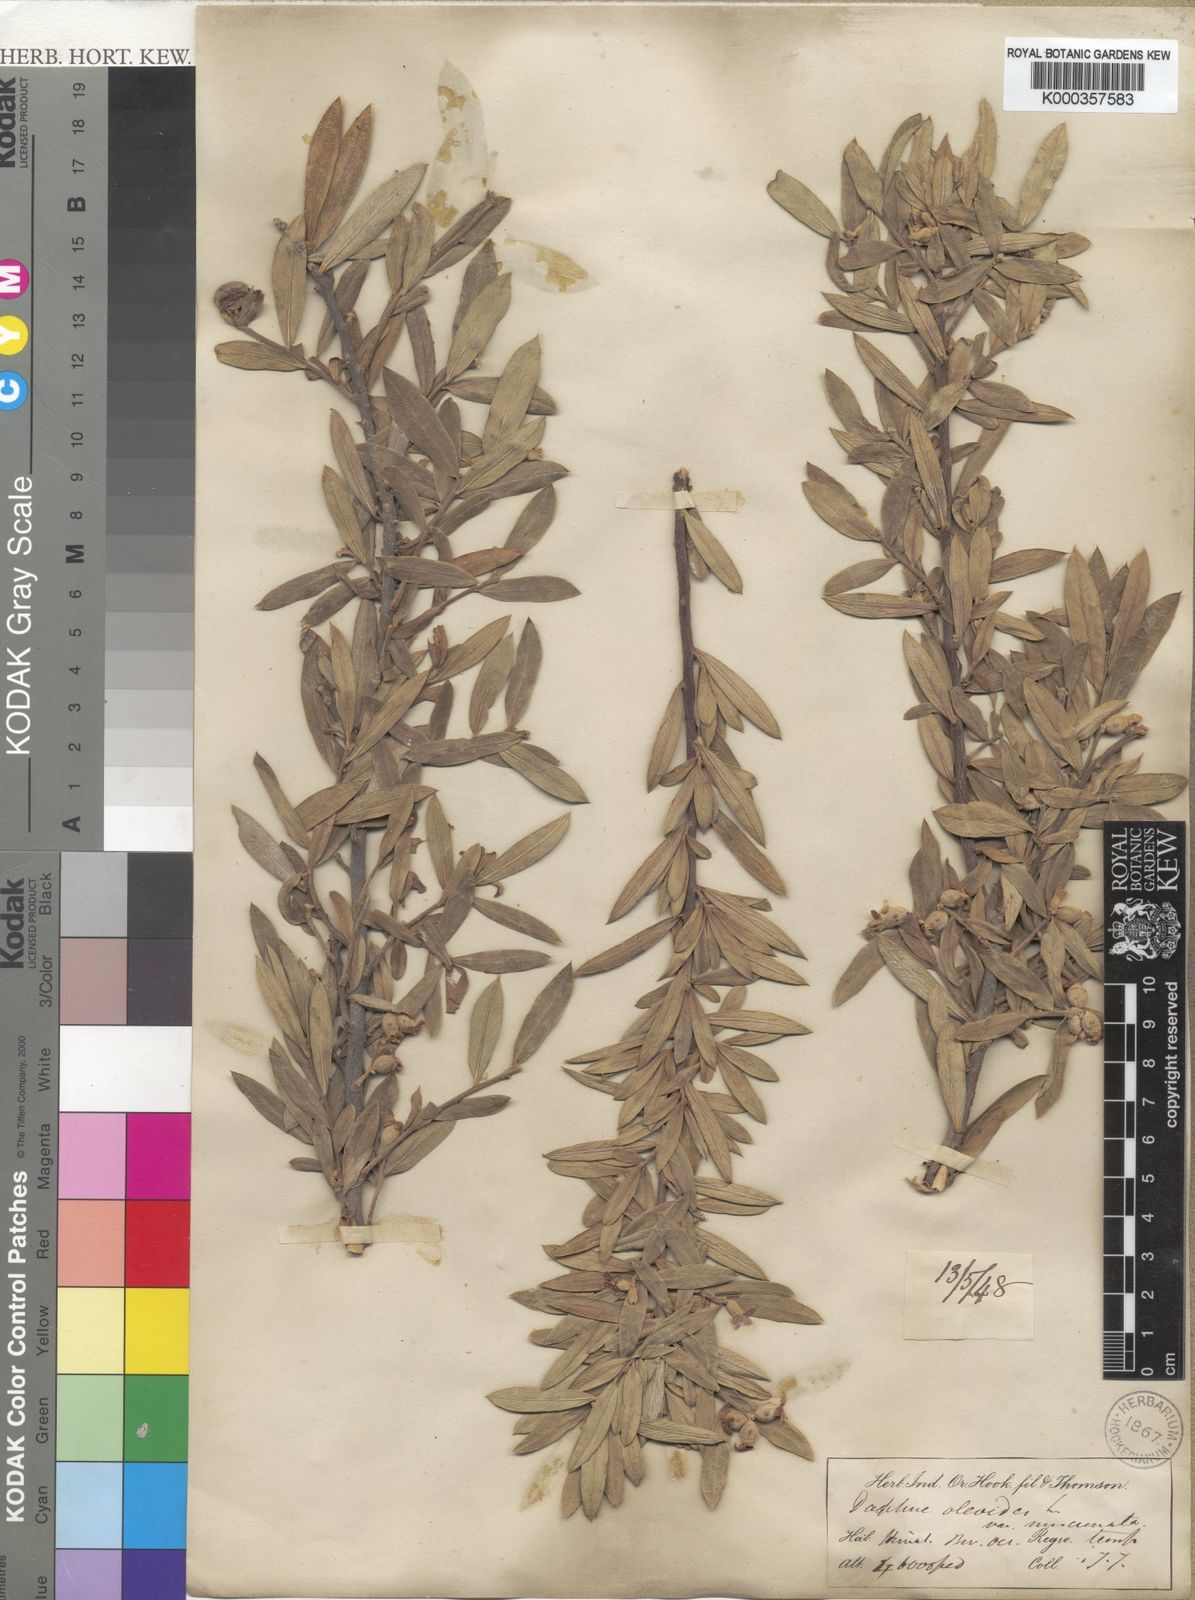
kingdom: Plantae
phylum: Tracheophyta
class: Magnoliopsida
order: Malvales
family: Thymelaeaceae
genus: Daphne
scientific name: Daphne oleoides
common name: Spurge-olive
